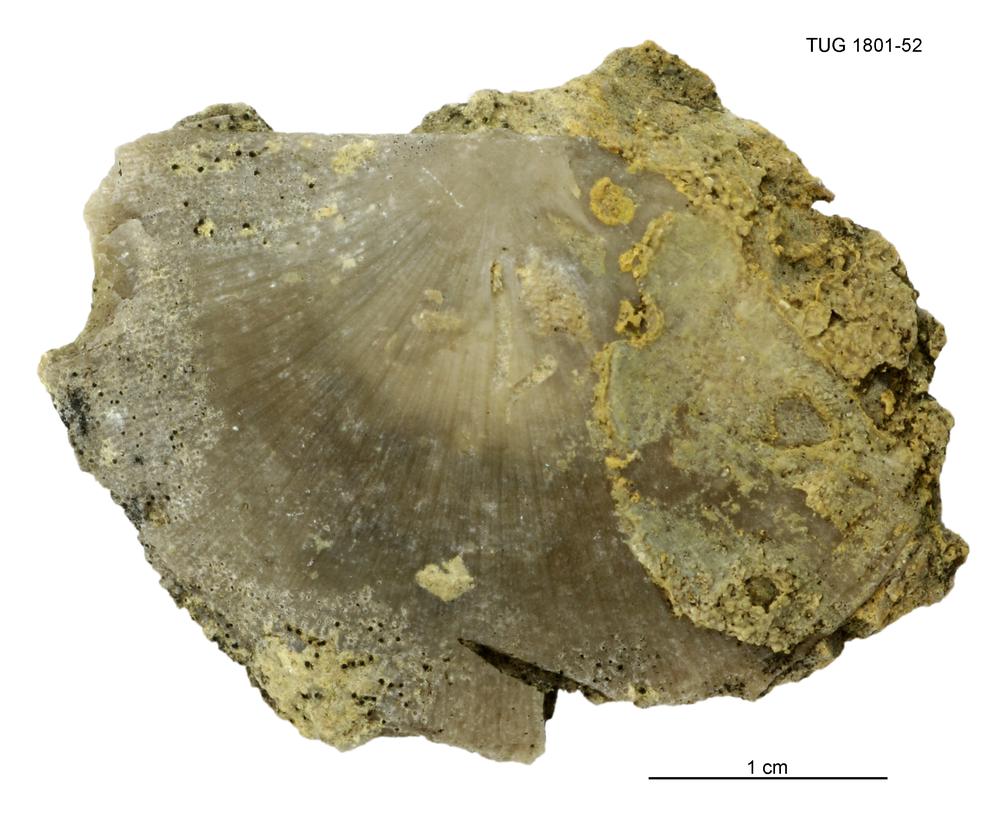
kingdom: Animalia
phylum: Brachiopoda
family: Strophomenidae
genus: Strophomena
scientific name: Strophomena
